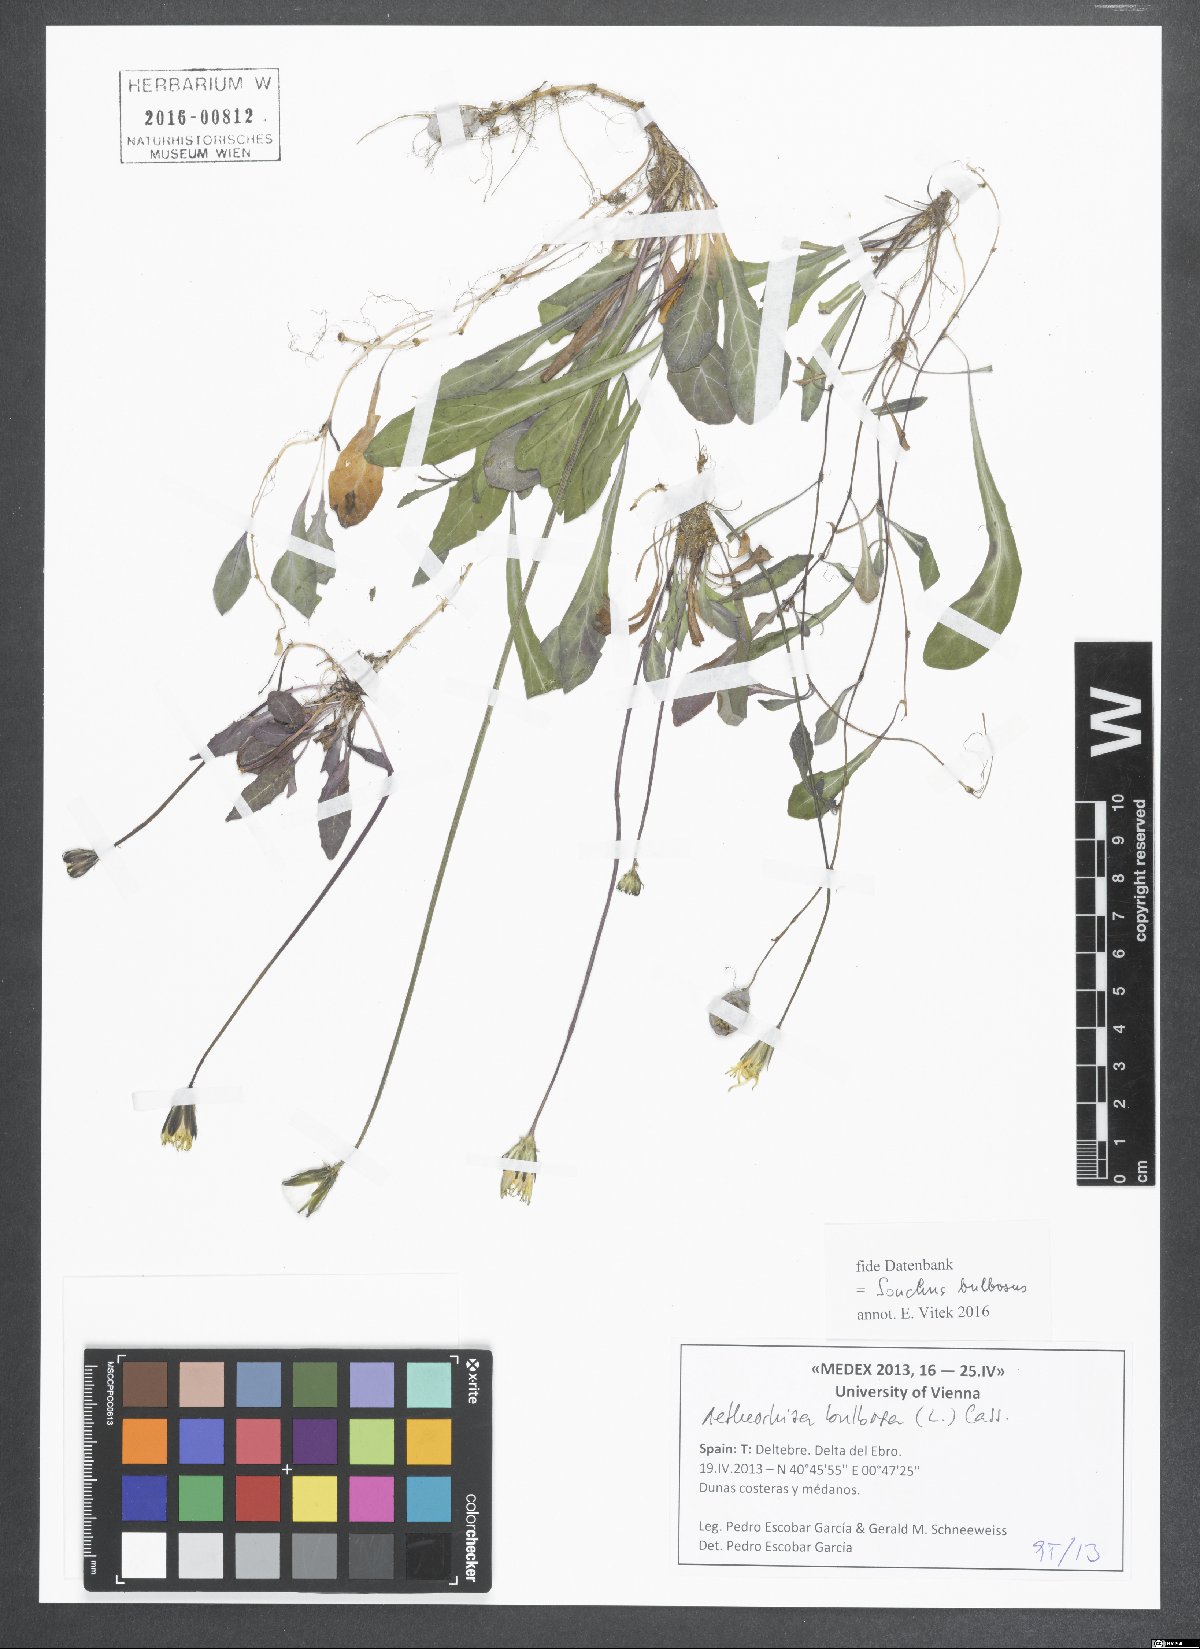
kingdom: Plantae
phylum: Tracheophyta
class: Magnoliopsida
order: Asterales
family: Asteraceae
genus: Aetheorhiza
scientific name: Aetheorhiza bulbosa
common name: Tuberous hawk's-beard
